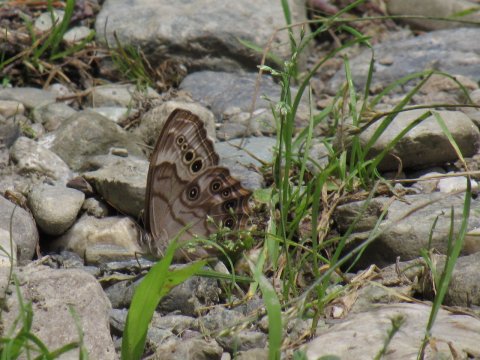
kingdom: Animalia
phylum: Arthropoda
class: Insecta
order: Lepidoptera
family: Nymphalidae
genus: Lethe
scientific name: Lethe anthedon
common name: Northern Pearly-Eye
